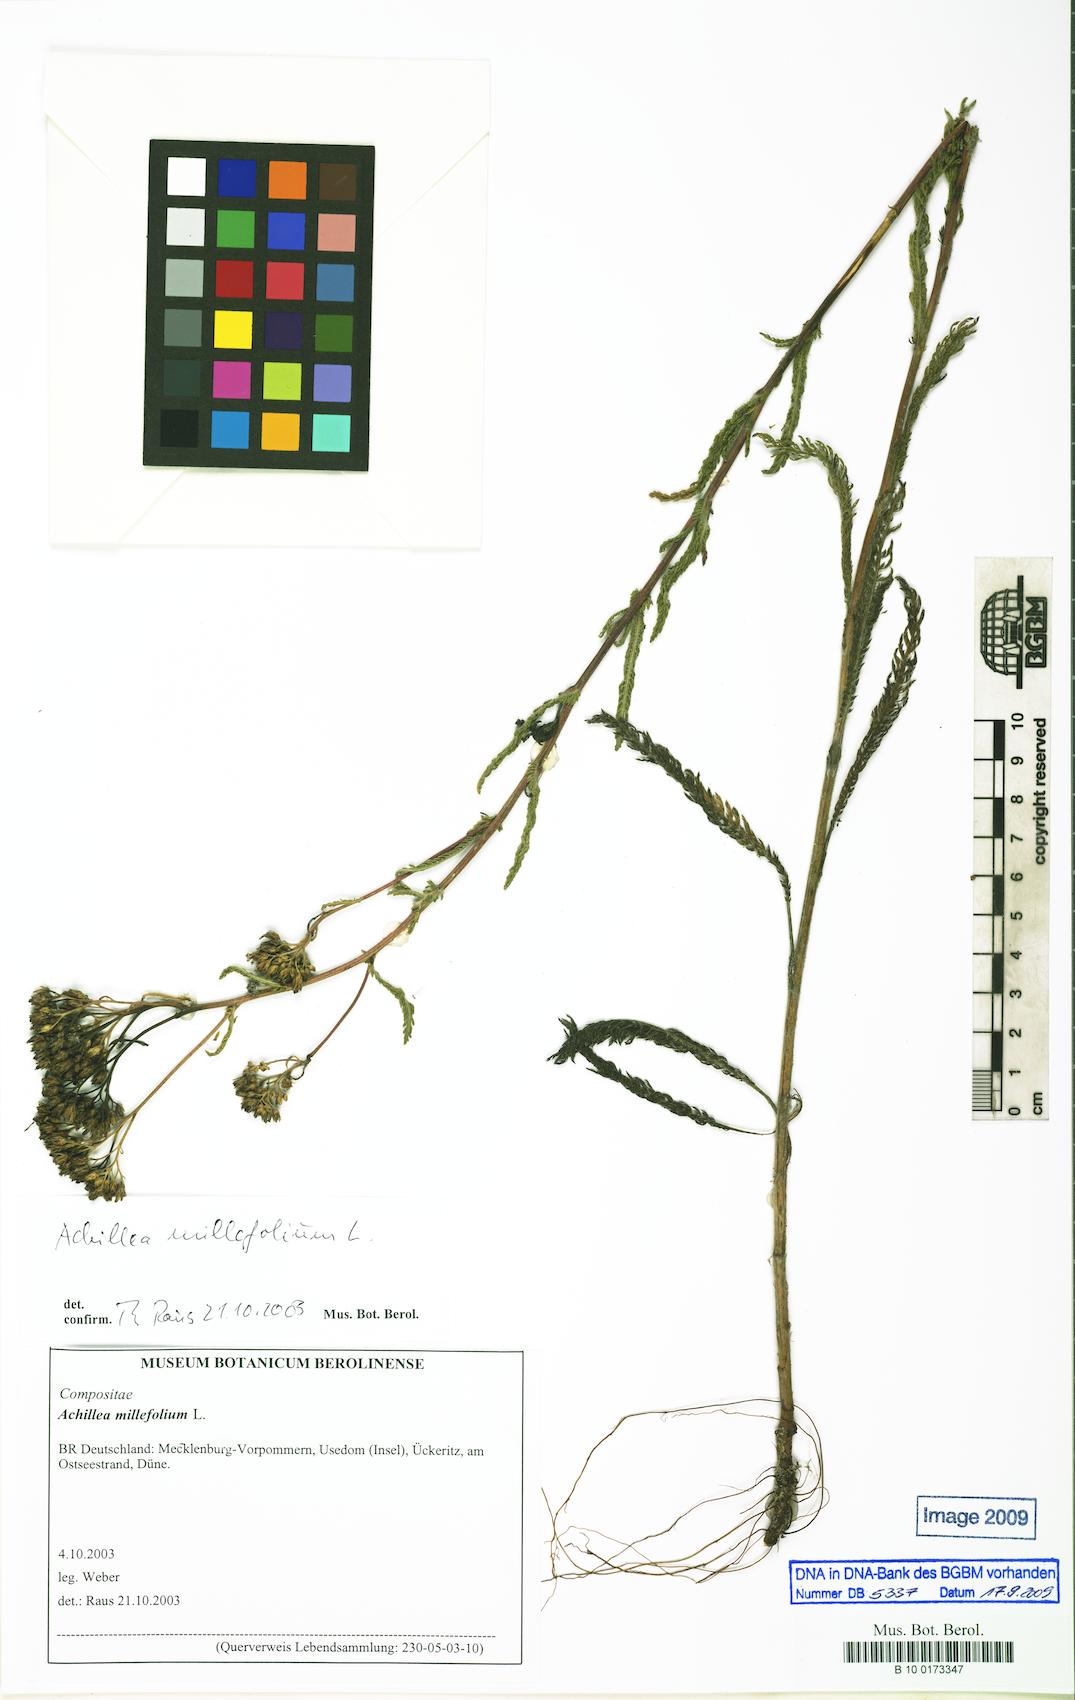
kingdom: Plantae
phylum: Tracheophyta
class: Magnoliopsida
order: Asterales
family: Asteraceae
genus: Achillea
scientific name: Achillea millefolium
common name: Yarrow
